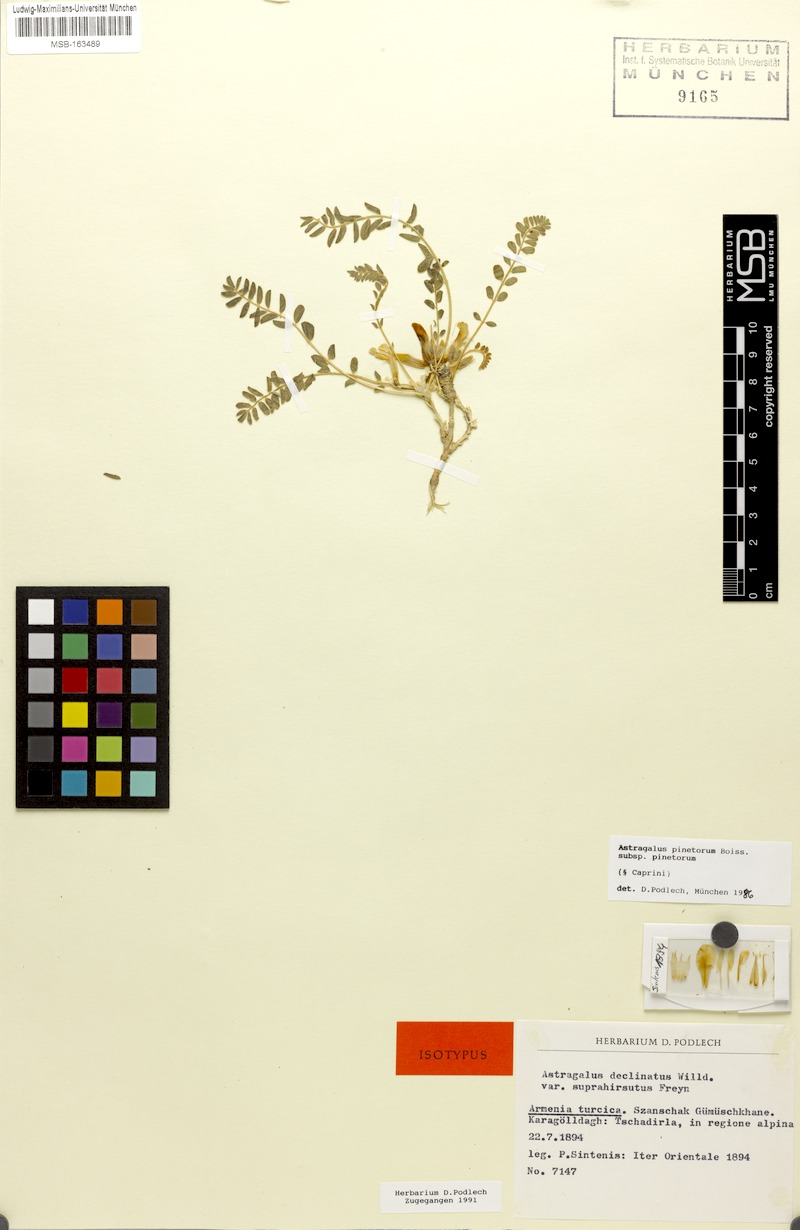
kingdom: Plantae
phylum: Tracheophyta
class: Magnoliopsida
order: Fabales
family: Fabaceae
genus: Astragalus
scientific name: Astragalus pinetorum
